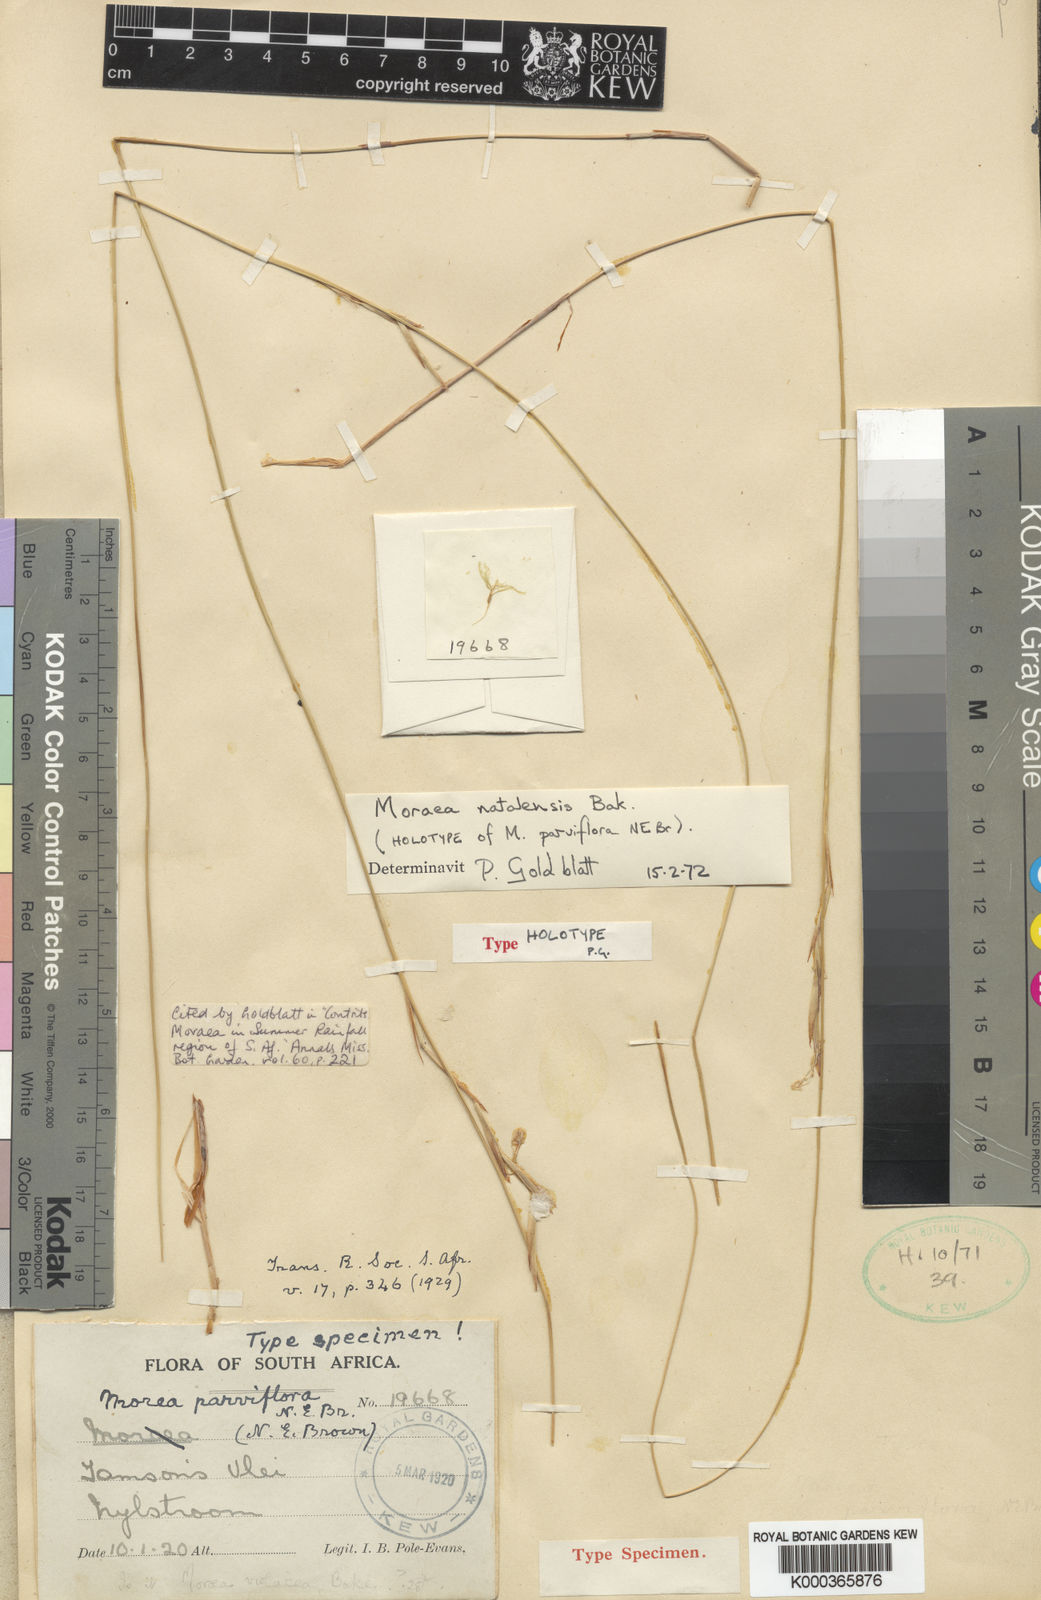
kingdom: Plantae
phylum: Tracheophyta
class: Liliopsida
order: Asparagales
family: Iridaceae
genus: Moraea
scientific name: Moraea natalensis
